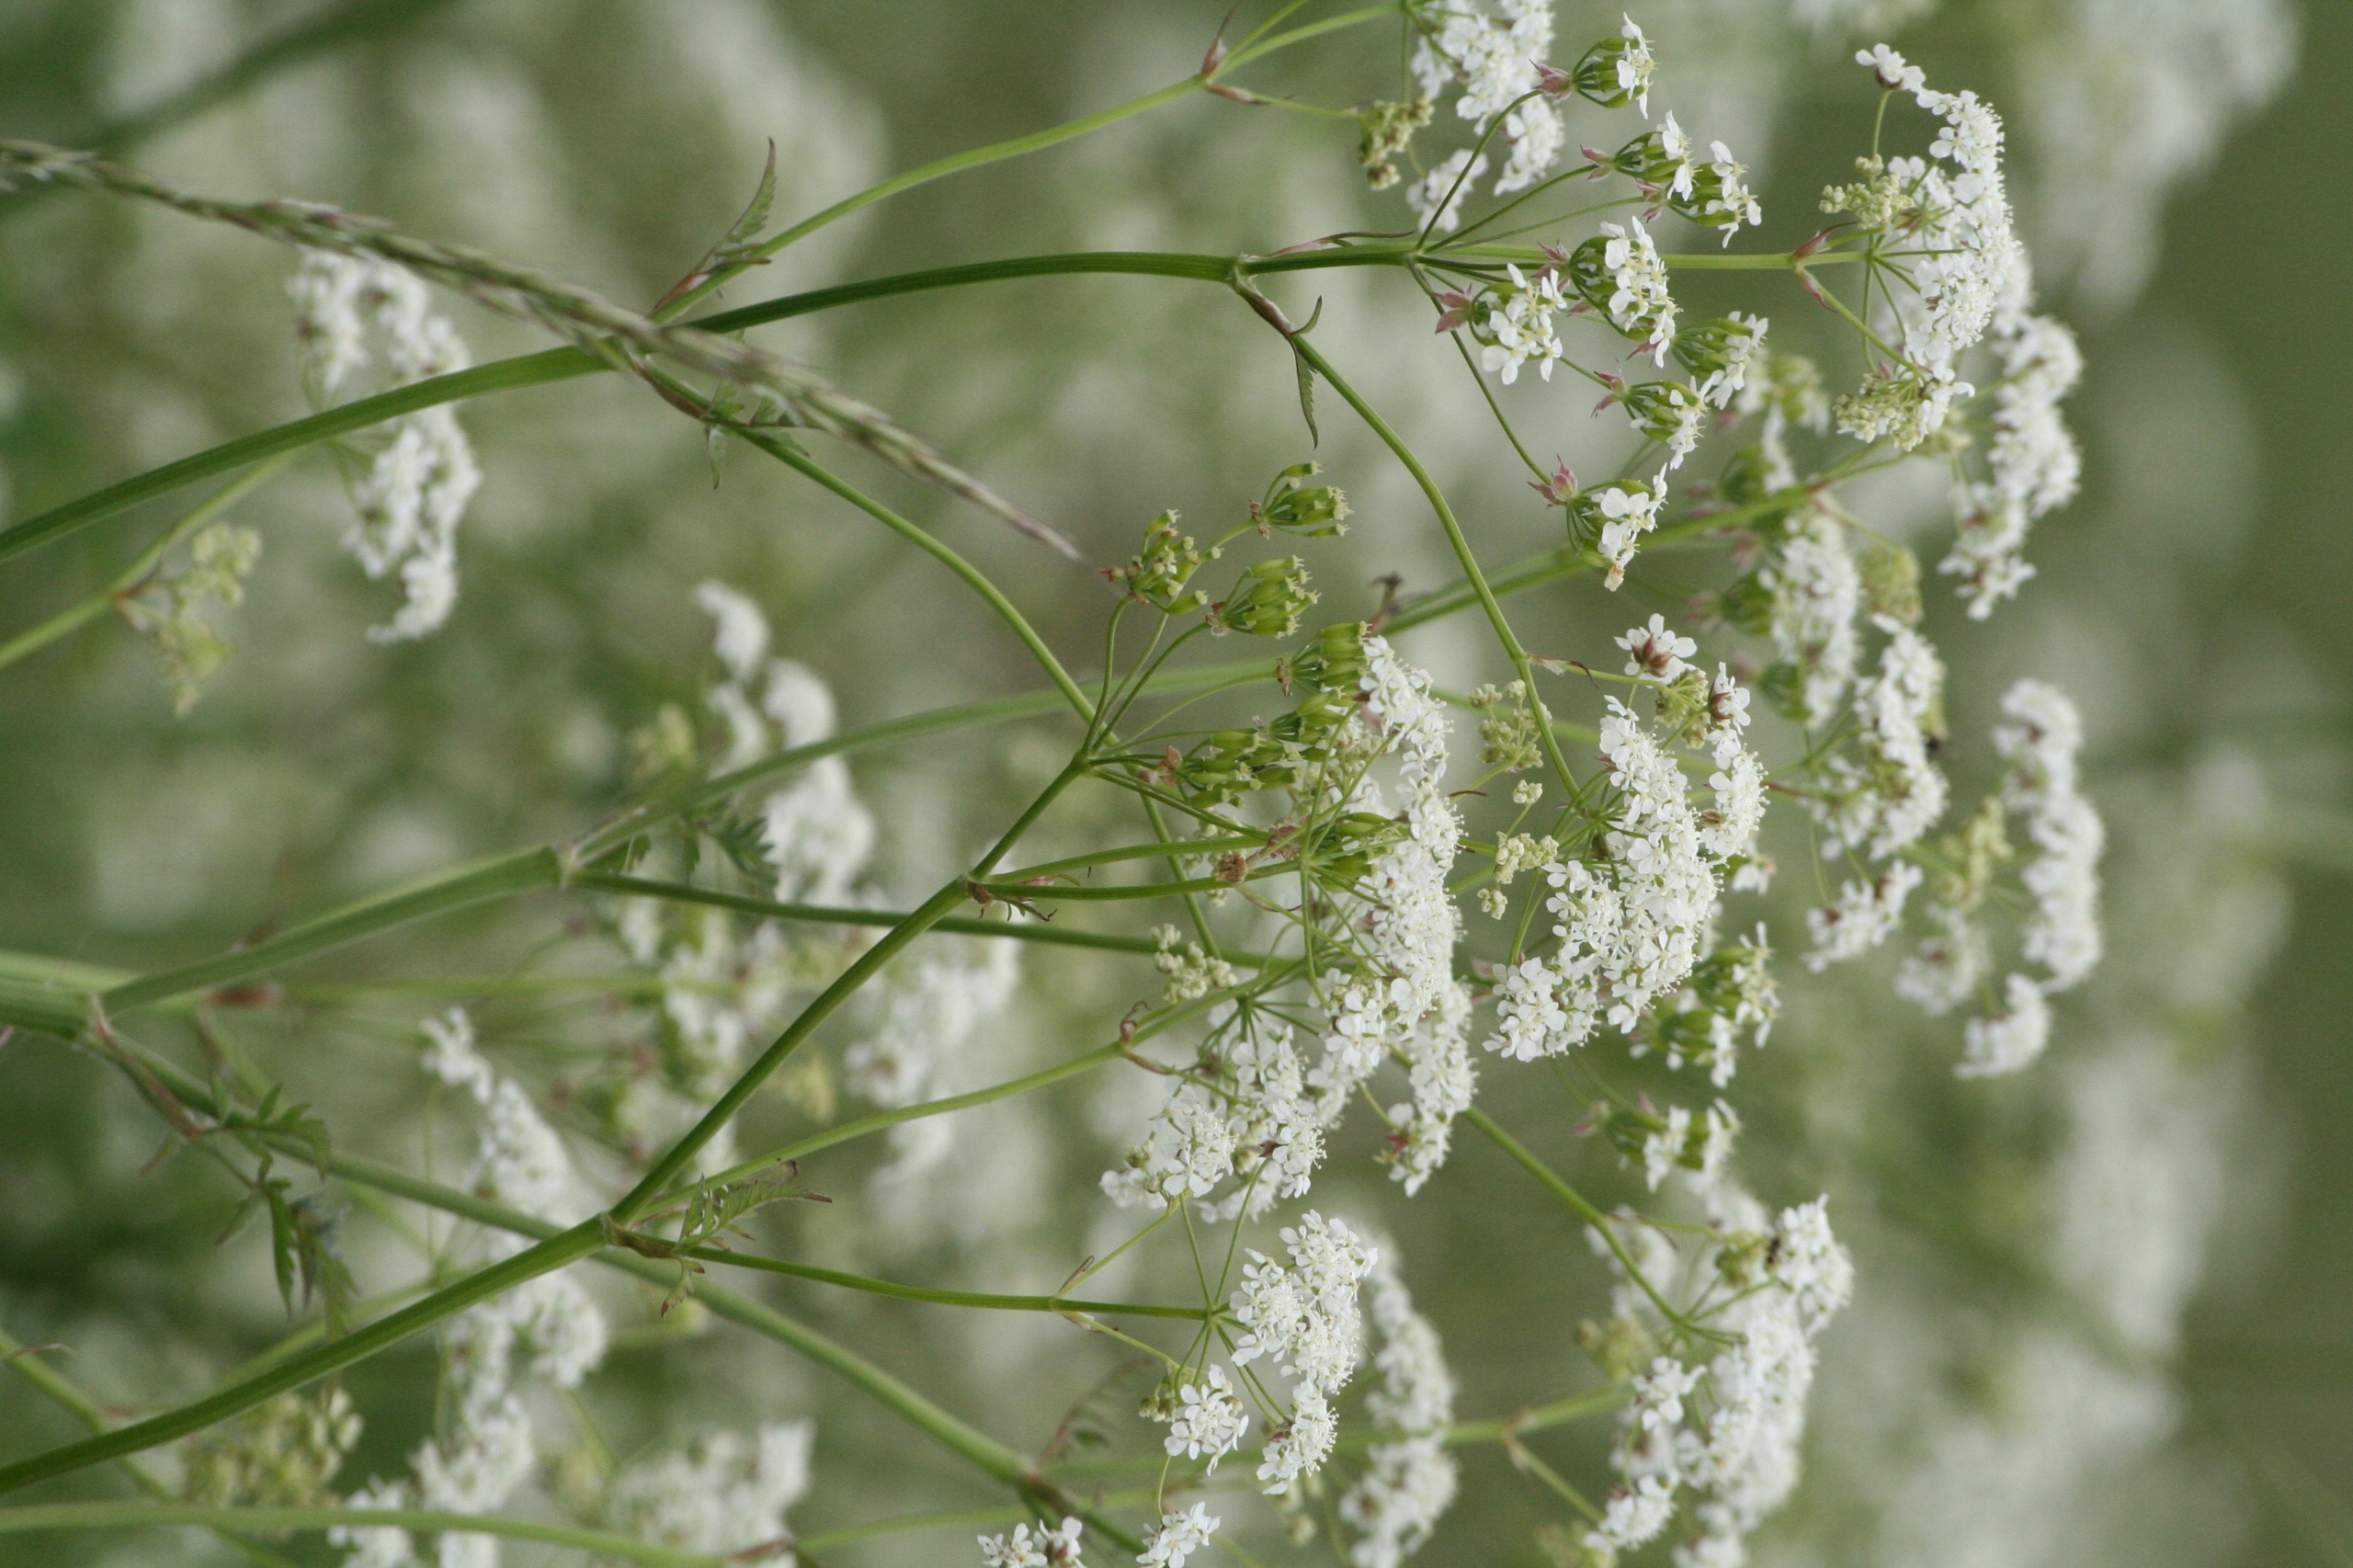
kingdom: Plantae
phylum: Tracheophyta
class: Magnoliopsida
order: Apiales
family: Apiaceae
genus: Anthriscus
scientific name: Anthriscus sylvestris
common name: Vild kørvel
